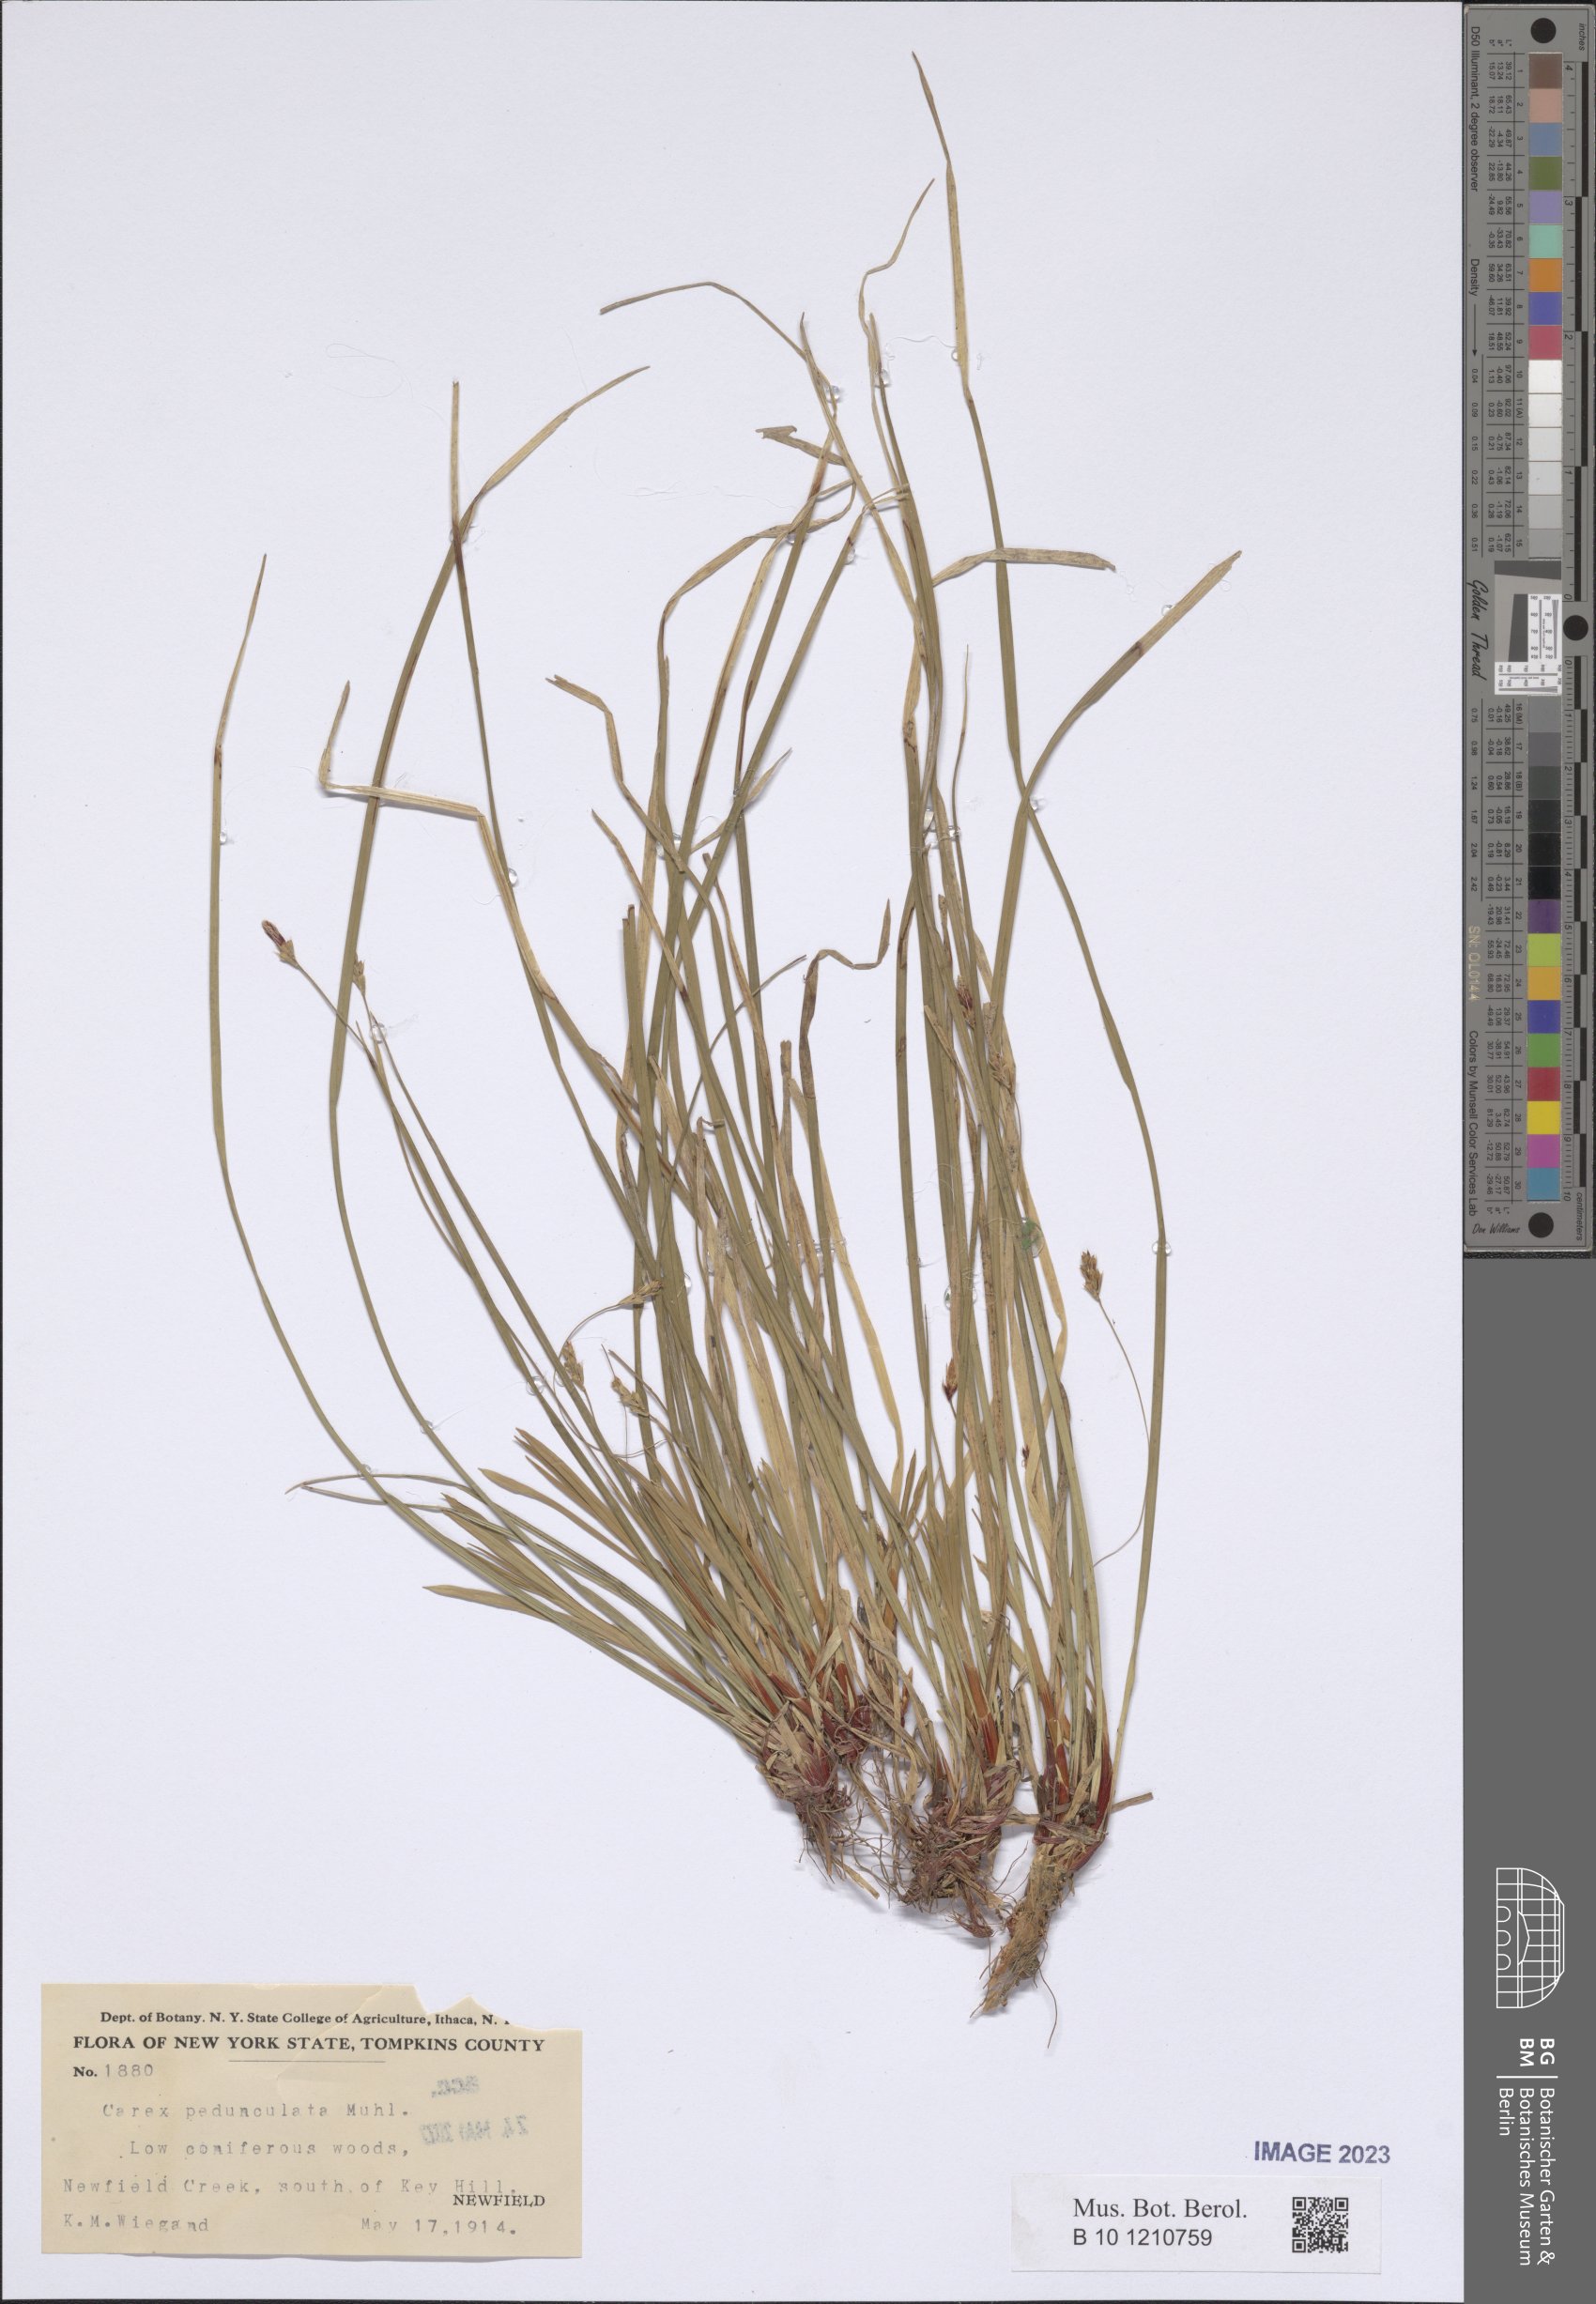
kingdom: Plantae
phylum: Tracheophyta
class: Liliopsida
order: Poales
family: Cyperaceae
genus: Carex
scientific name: Carex pedunculata
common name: Pedunculate sedge
